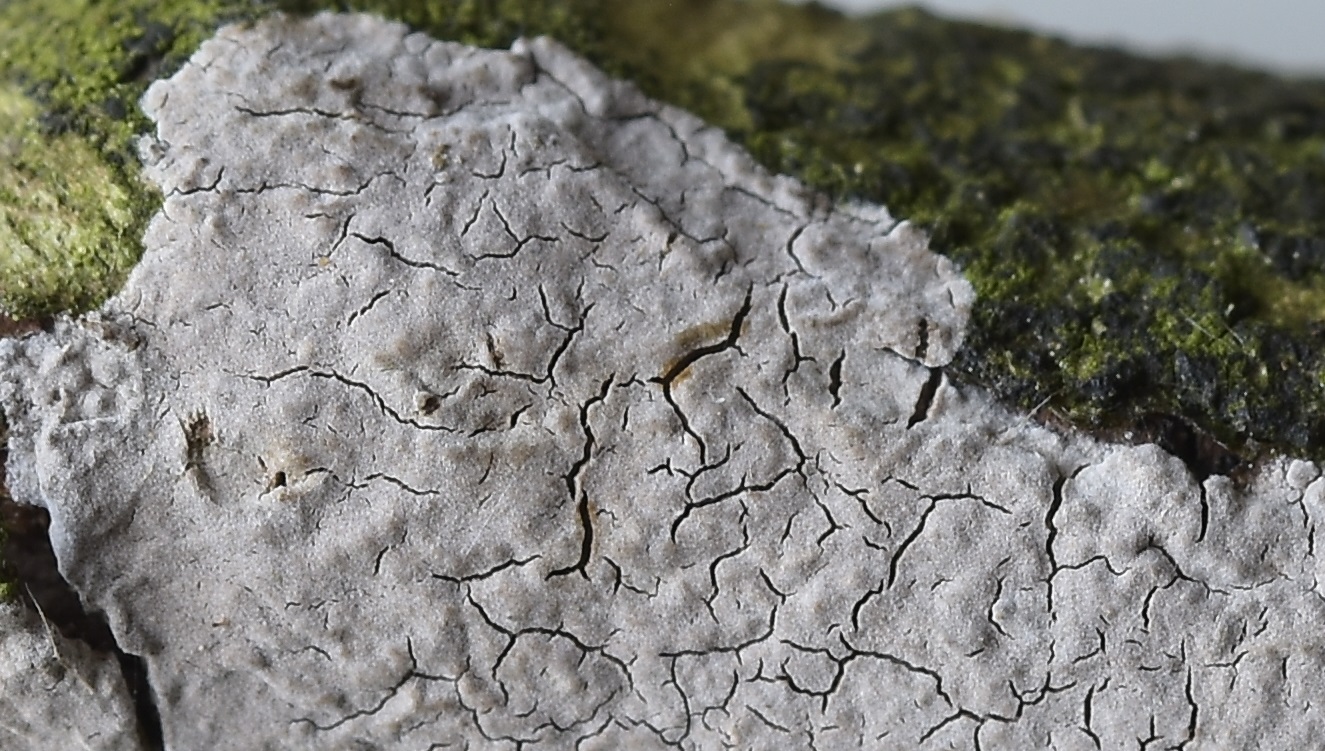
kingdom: Fungi
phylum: Basidiomycota
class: Agaricomycetes
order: Russulales
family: Peniophoraceae
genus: Peniophora
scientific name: Peniophora lycii
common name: grynet voksskind
